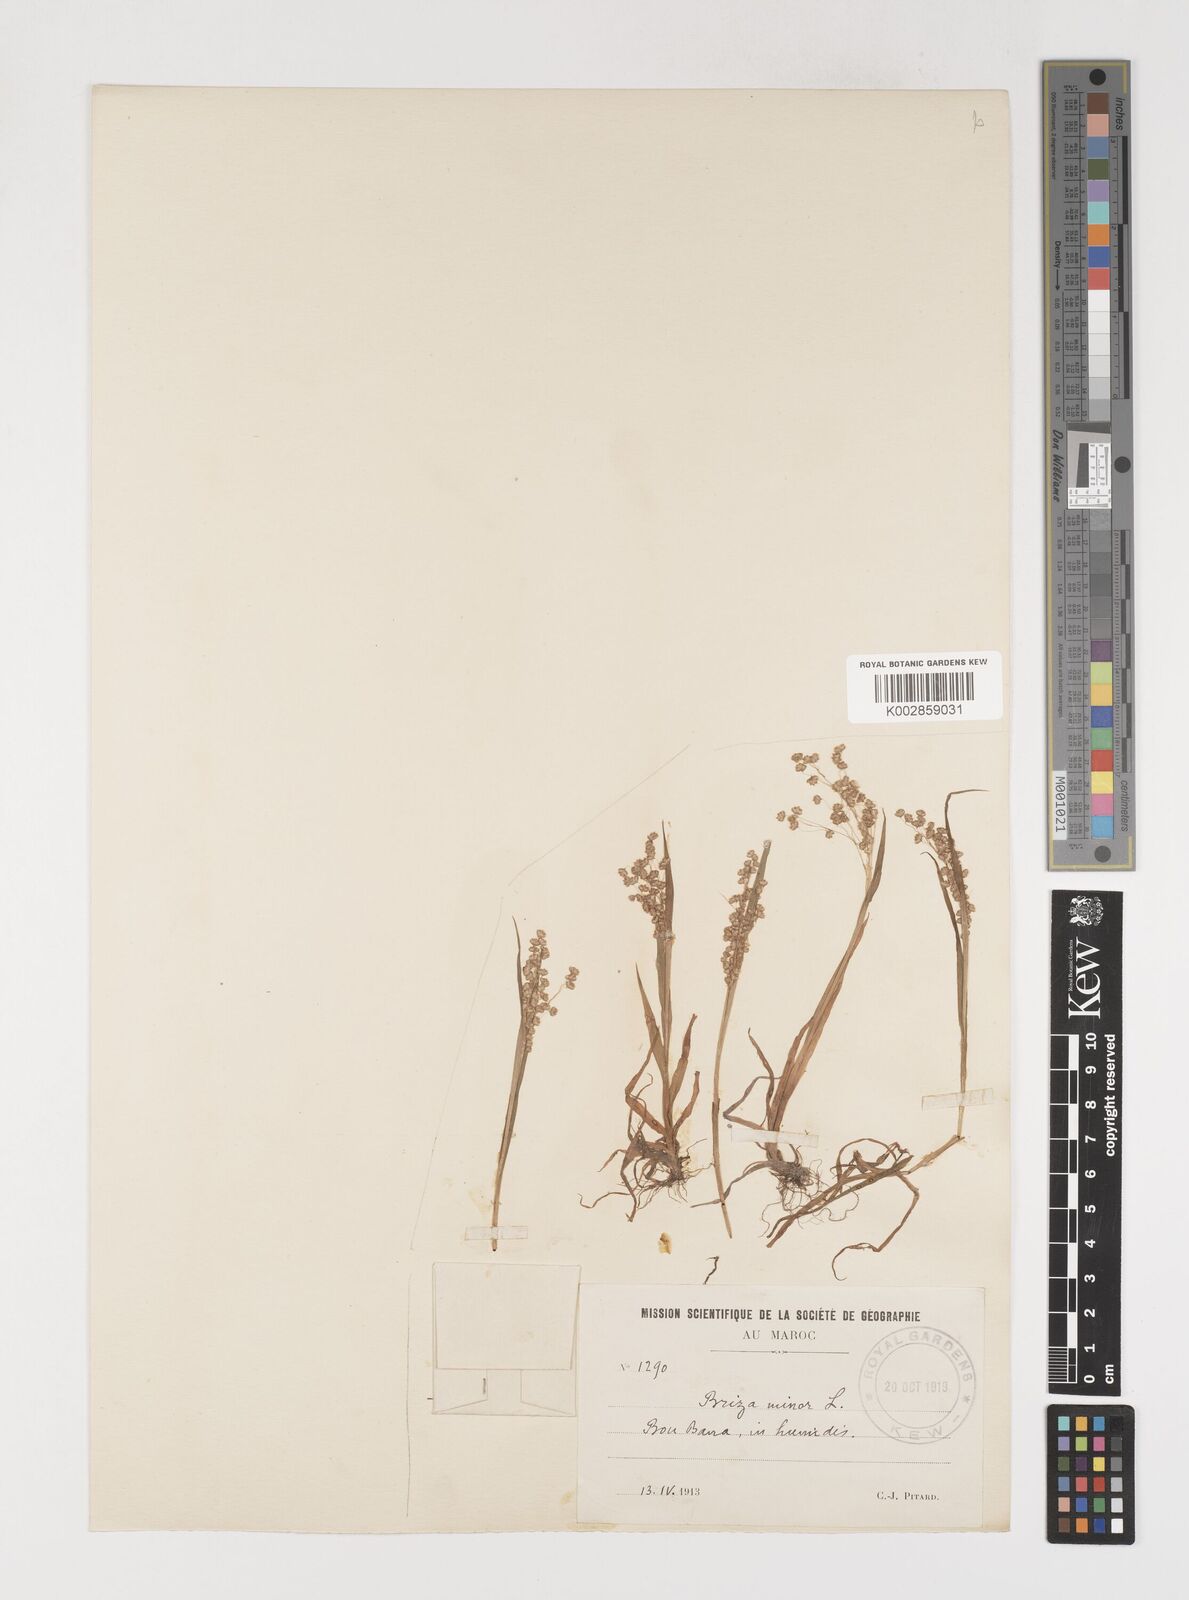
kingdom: Plantae
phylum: Tracheophyta
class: Liliopsida
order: Poales
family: Poaceae
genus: Briza
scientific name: Briza minor
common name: Lesser quaking-grass
